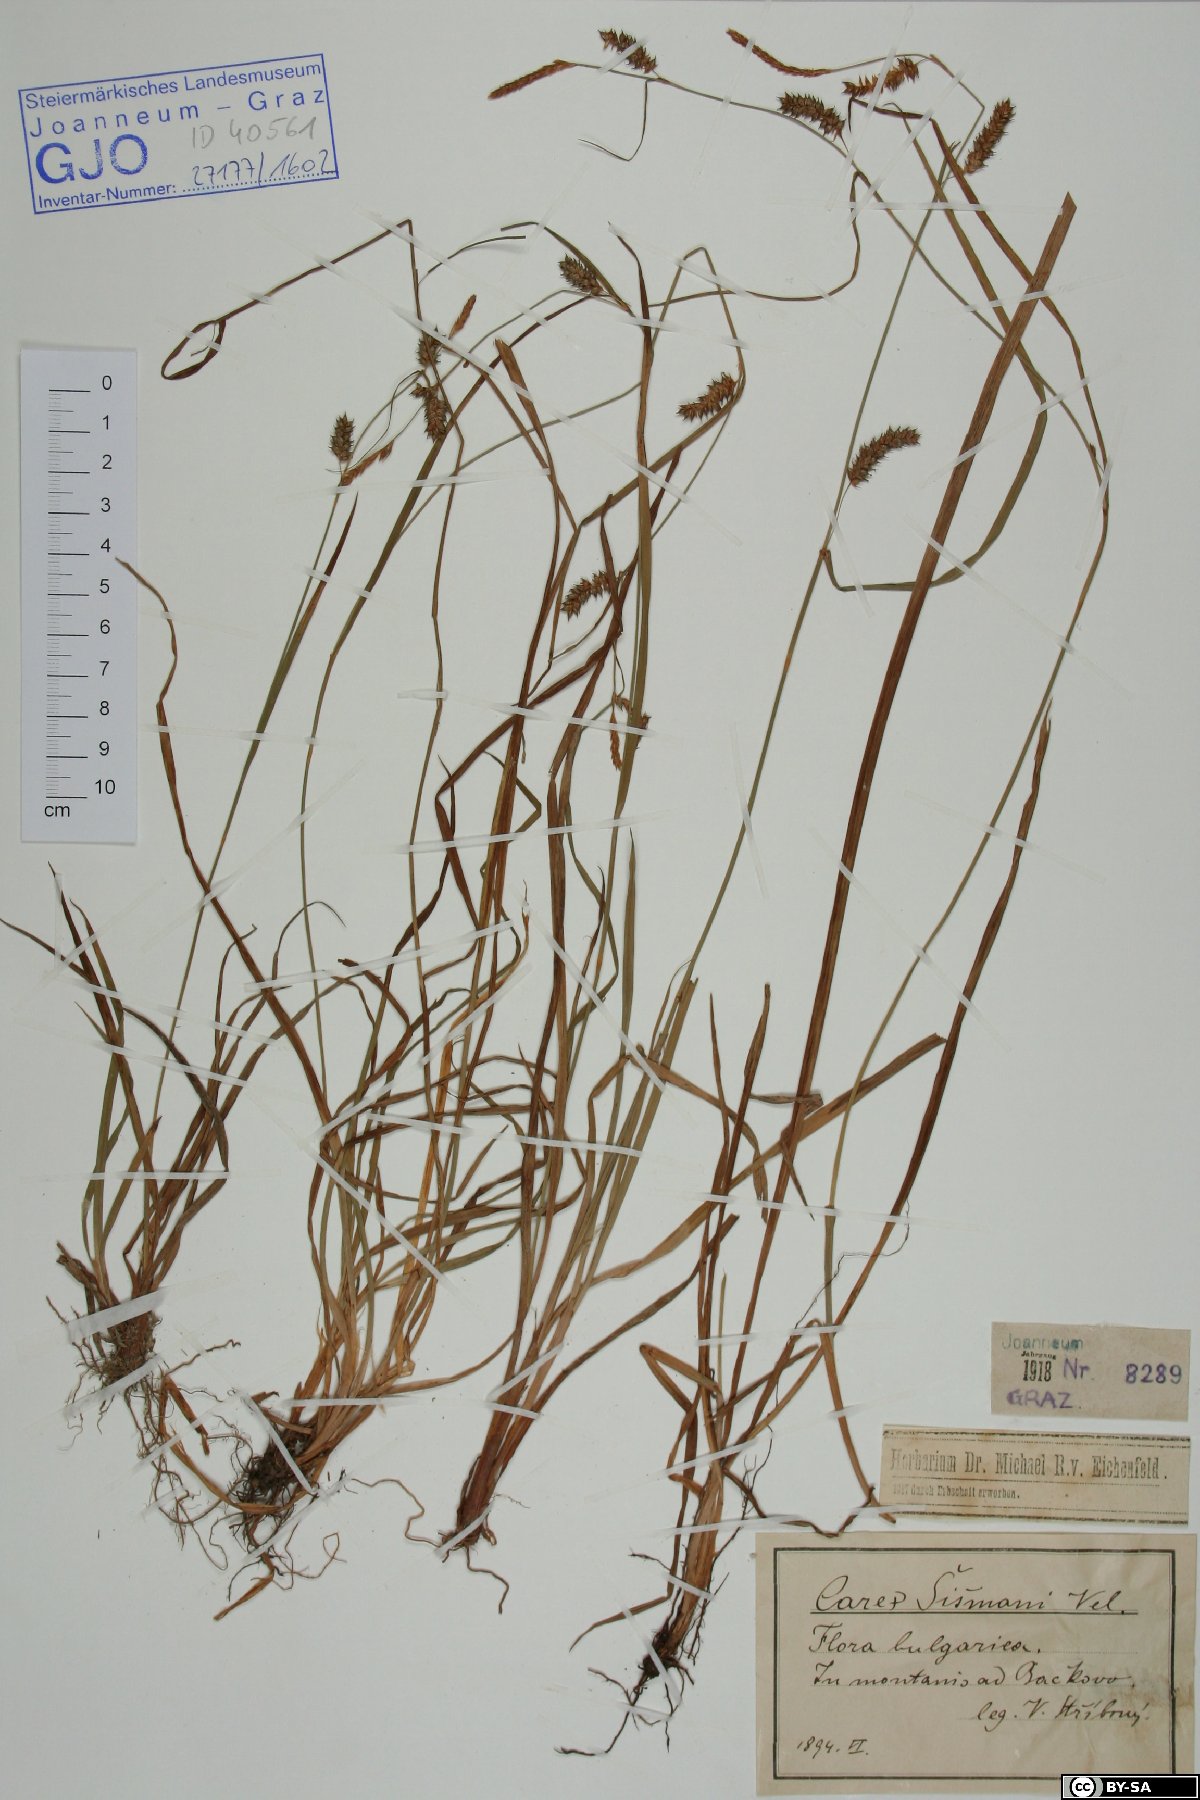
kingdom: Plantae
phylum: Tracheophyta
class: Liliopsida
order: Poales
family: Cyperaceae
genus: Carex
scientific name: Carex punctata
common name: Dotted sedge
